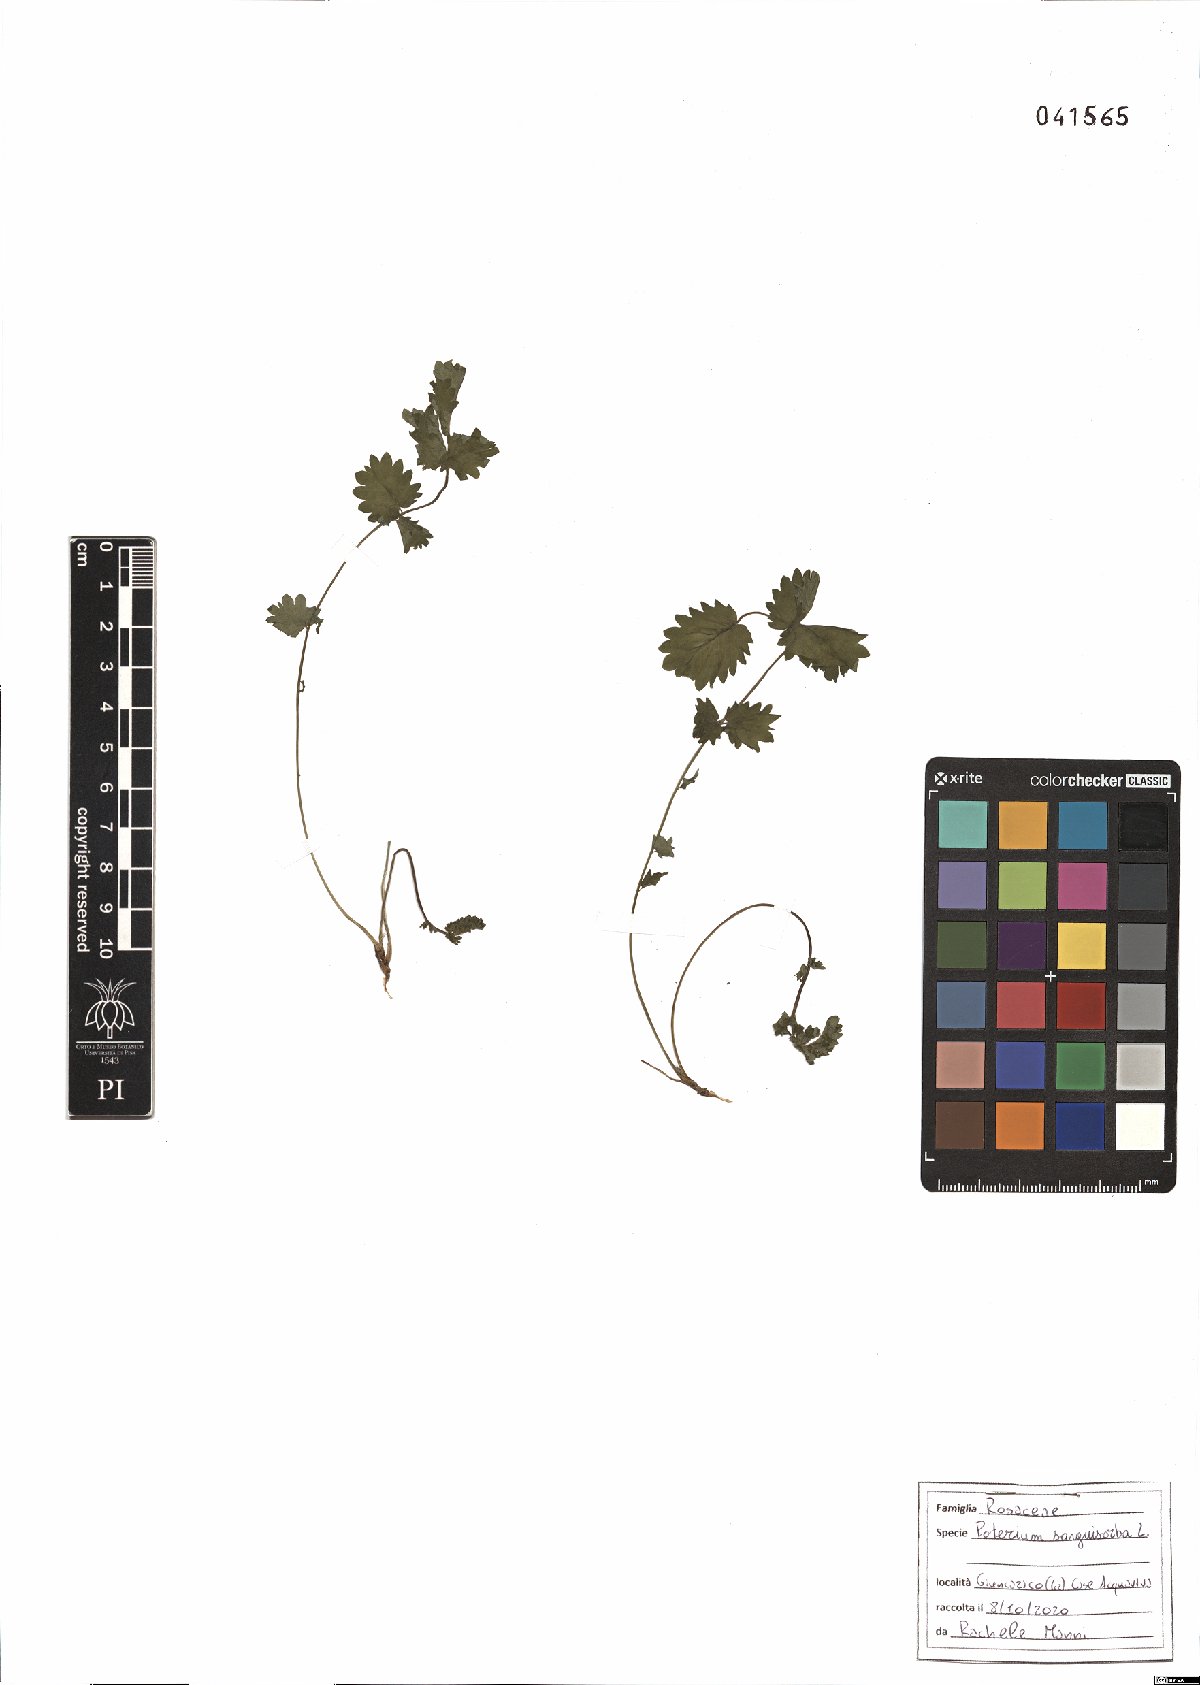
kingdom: Plantae
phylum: Tracheophyta
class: Magnoliopsida
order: Rosales
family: Rosaceae
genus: Poterium
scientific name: Poterium sanguisorba
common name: Salad burnet
